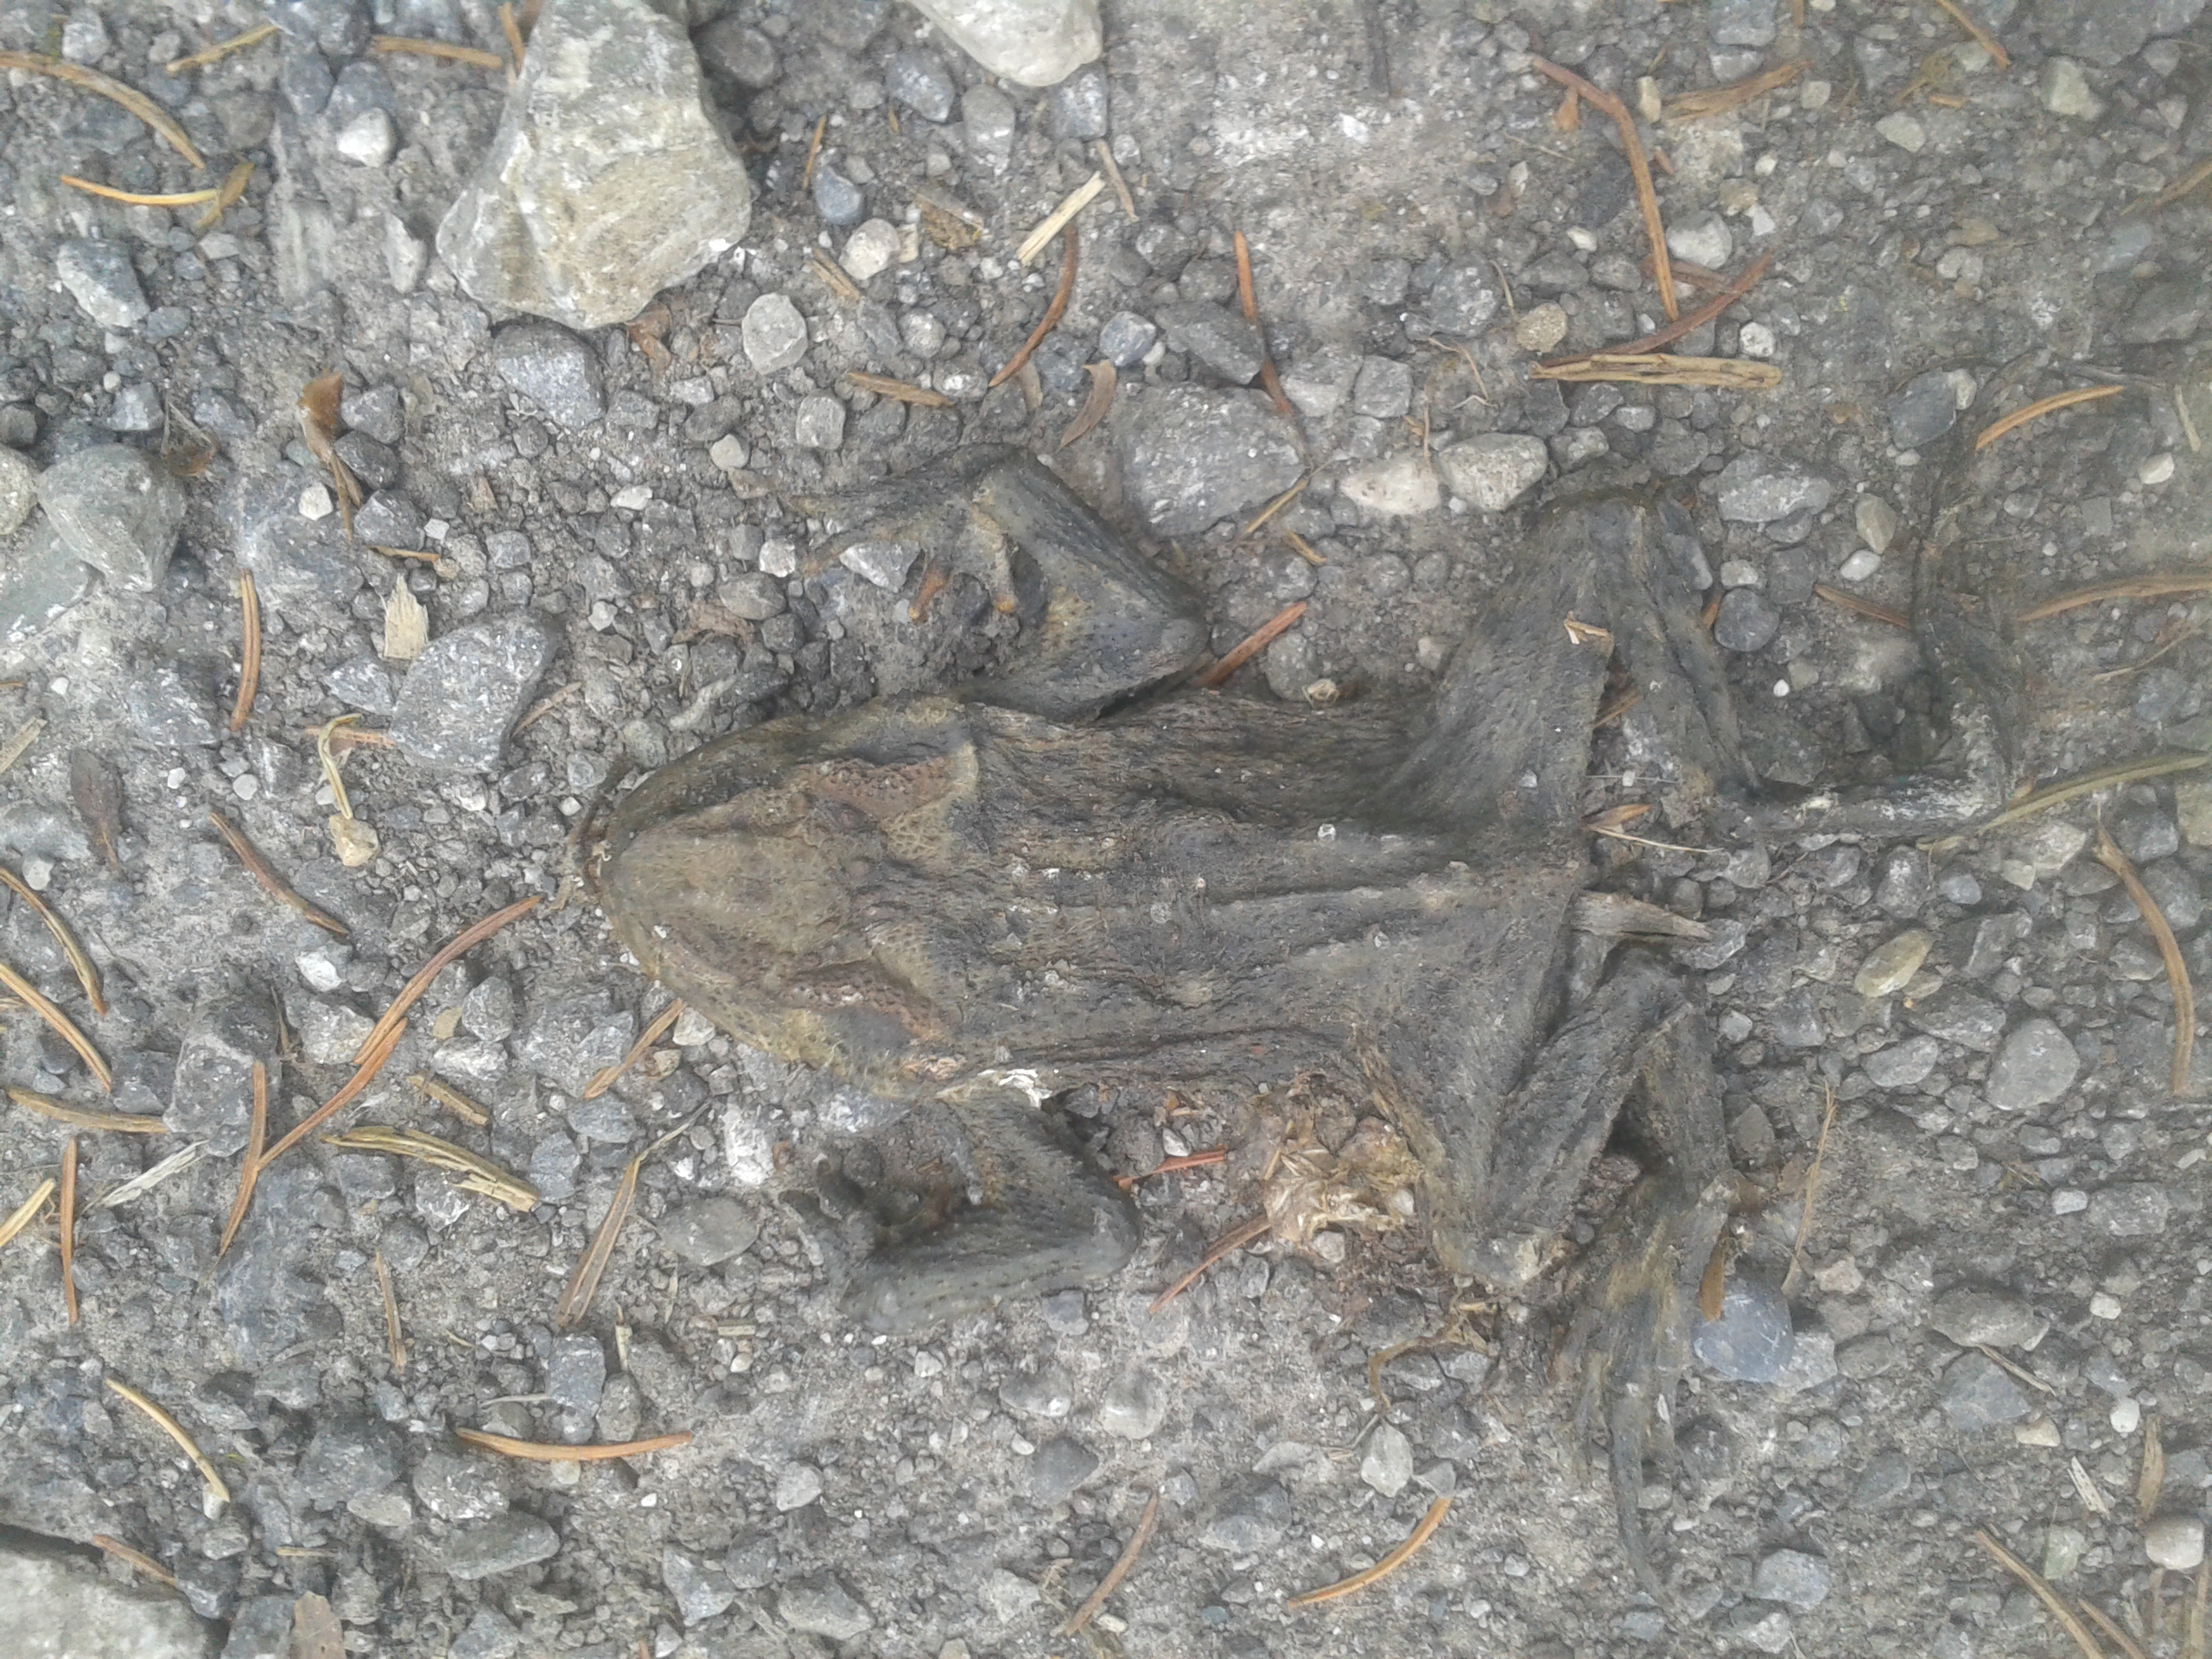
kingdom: Animalia
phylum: Chordata
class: Amphibia
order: Anura
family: Bufonidae
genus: Bufo
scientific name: Bufo bufo
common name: Common toad
